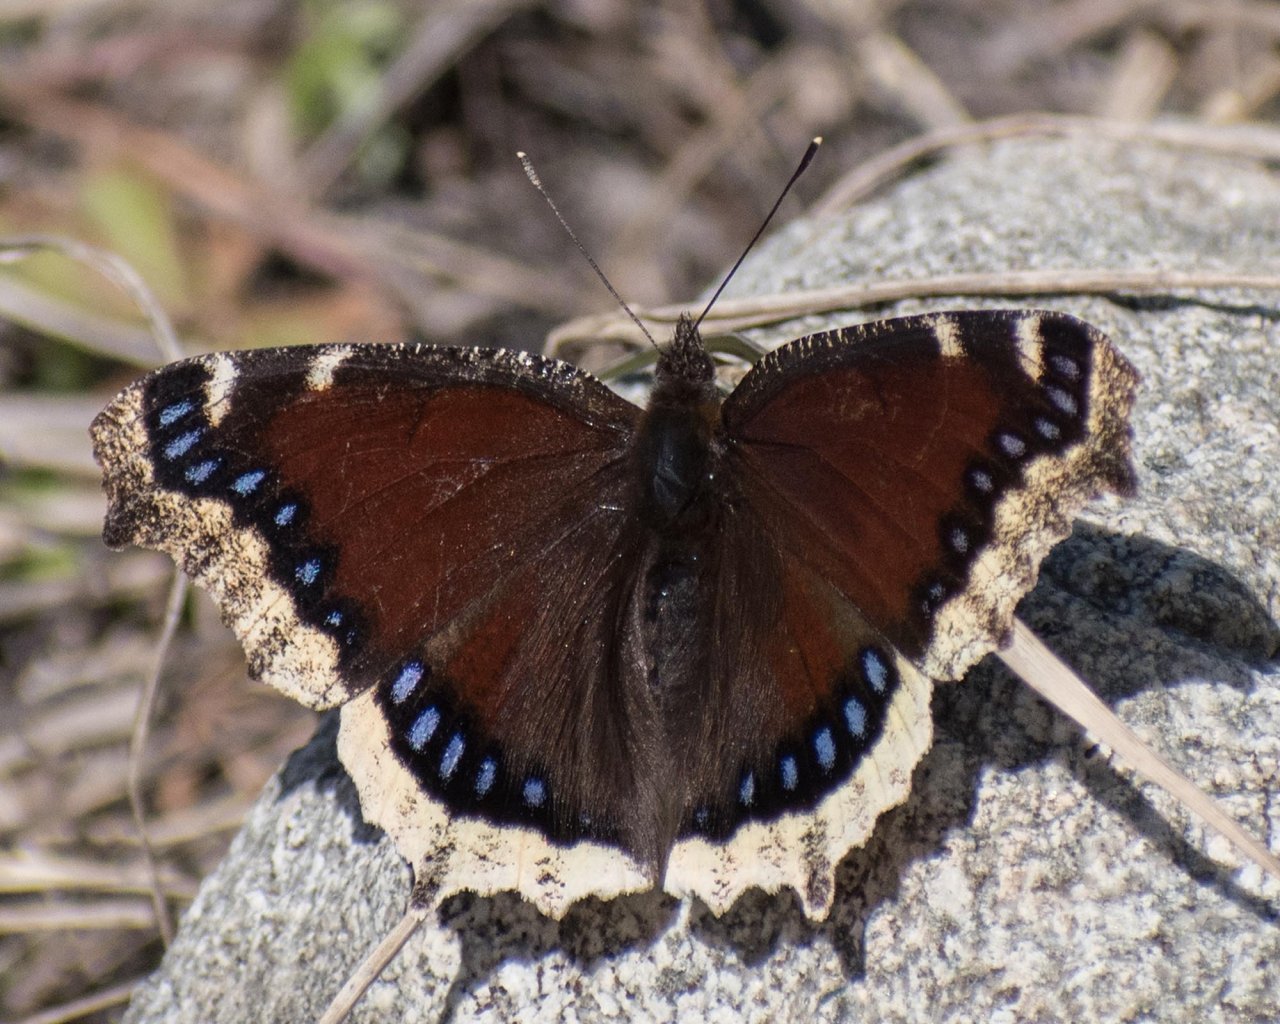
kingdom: Animalia
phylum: Arthropoda
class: Insecta
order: Lepidoptera
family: Nymphalidae
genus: Nymphalis
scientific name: Nymphalis antiopa
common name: Mourning Cloak
